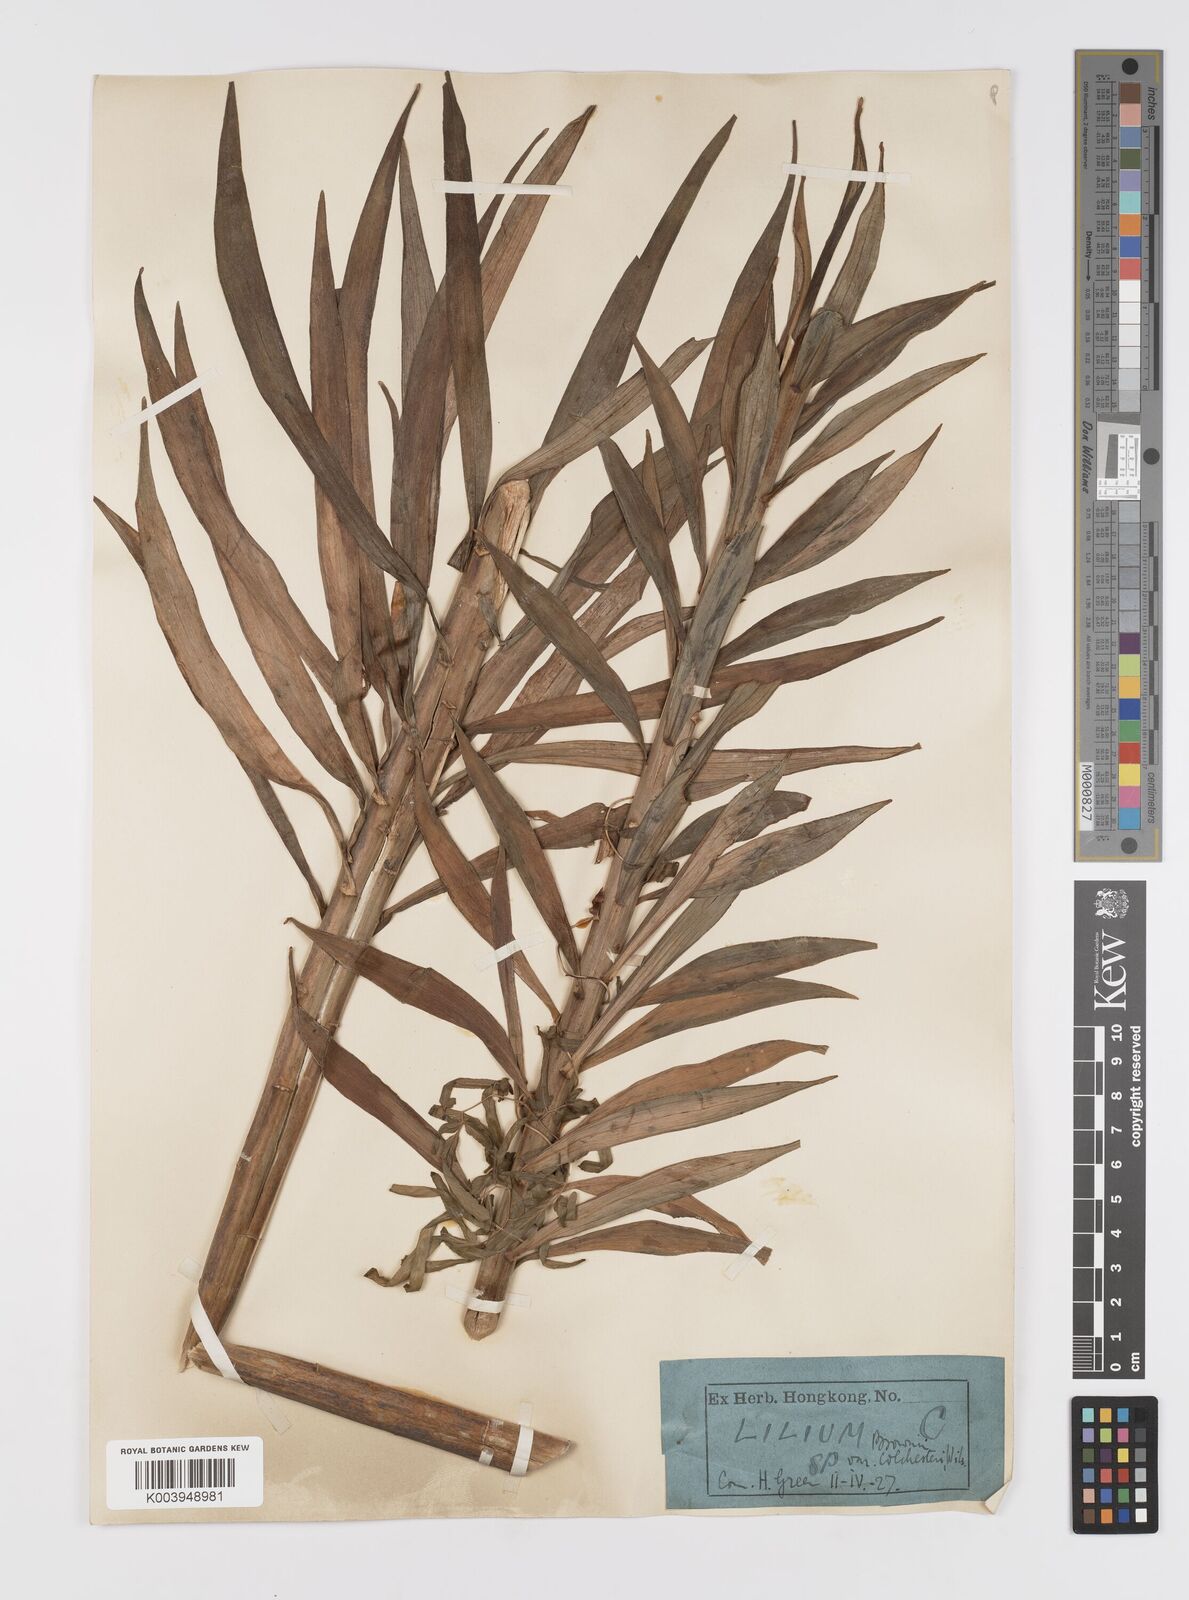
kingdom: Plantae
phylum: Tracheophyta
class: Liliopsida
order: Liliales
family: Liliaceae
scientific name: Liliaceae
